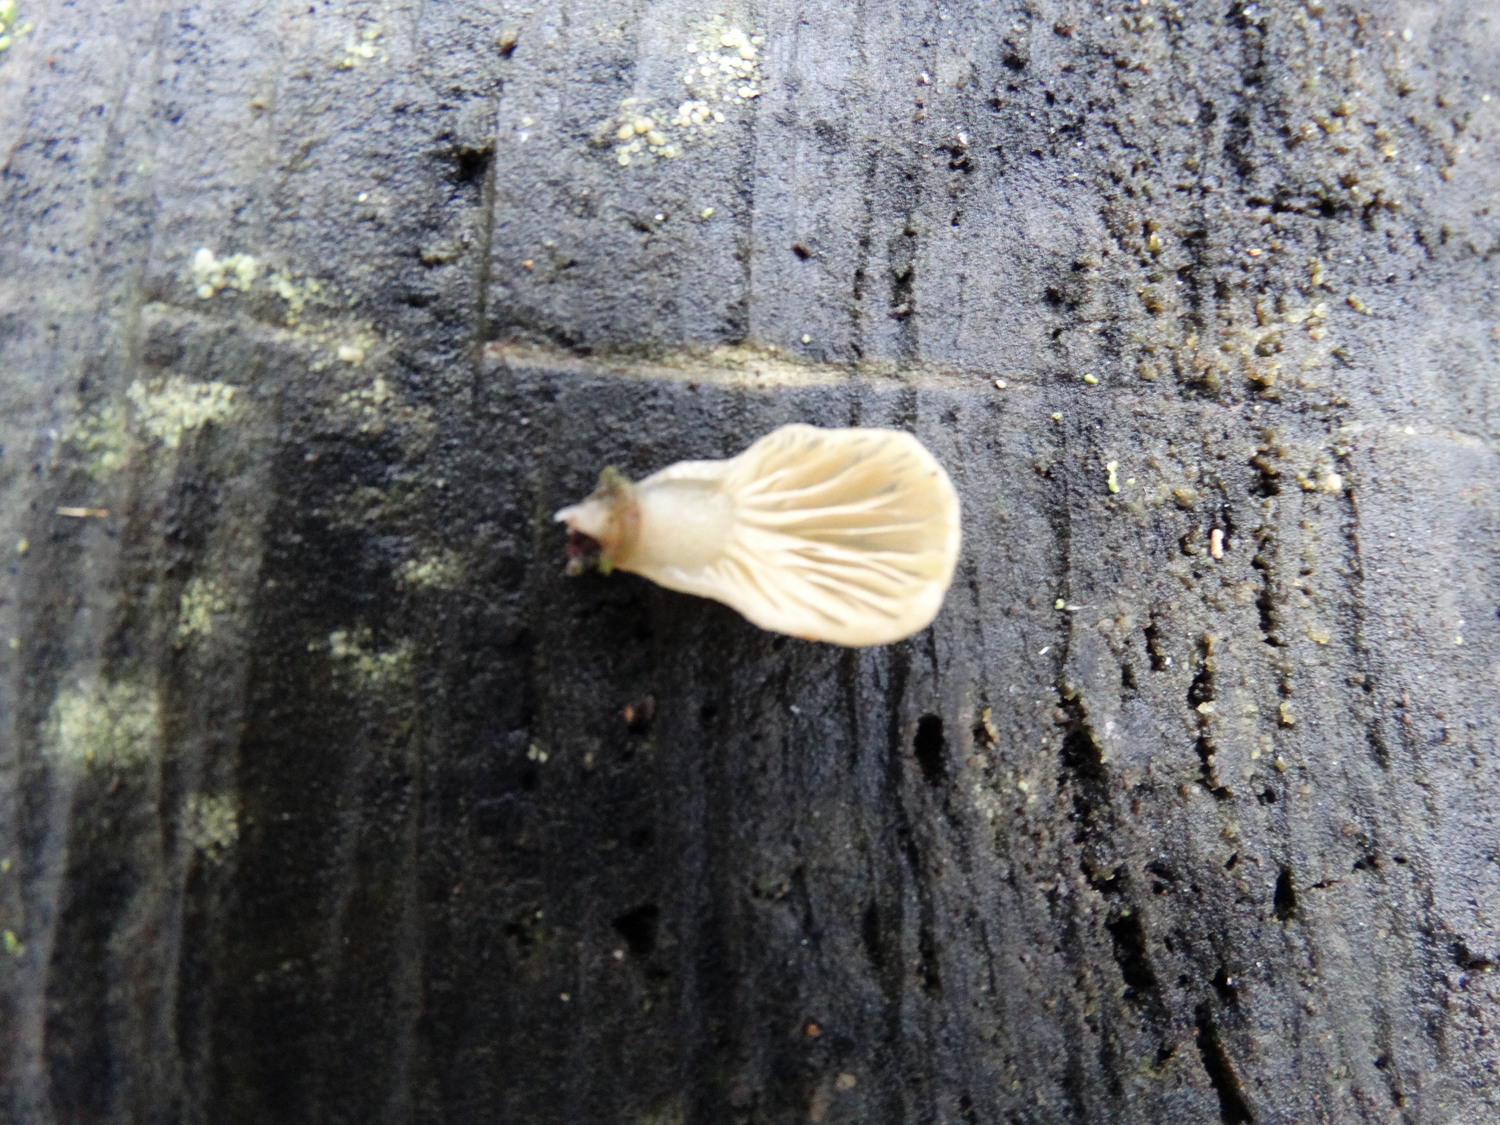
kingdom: Fungi
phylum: Basidiomycota
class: Agaricomycetes
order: Agaricales
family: Mycenaceae
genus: Panellus
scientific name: Panellus mitis
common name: mild epaulethat
